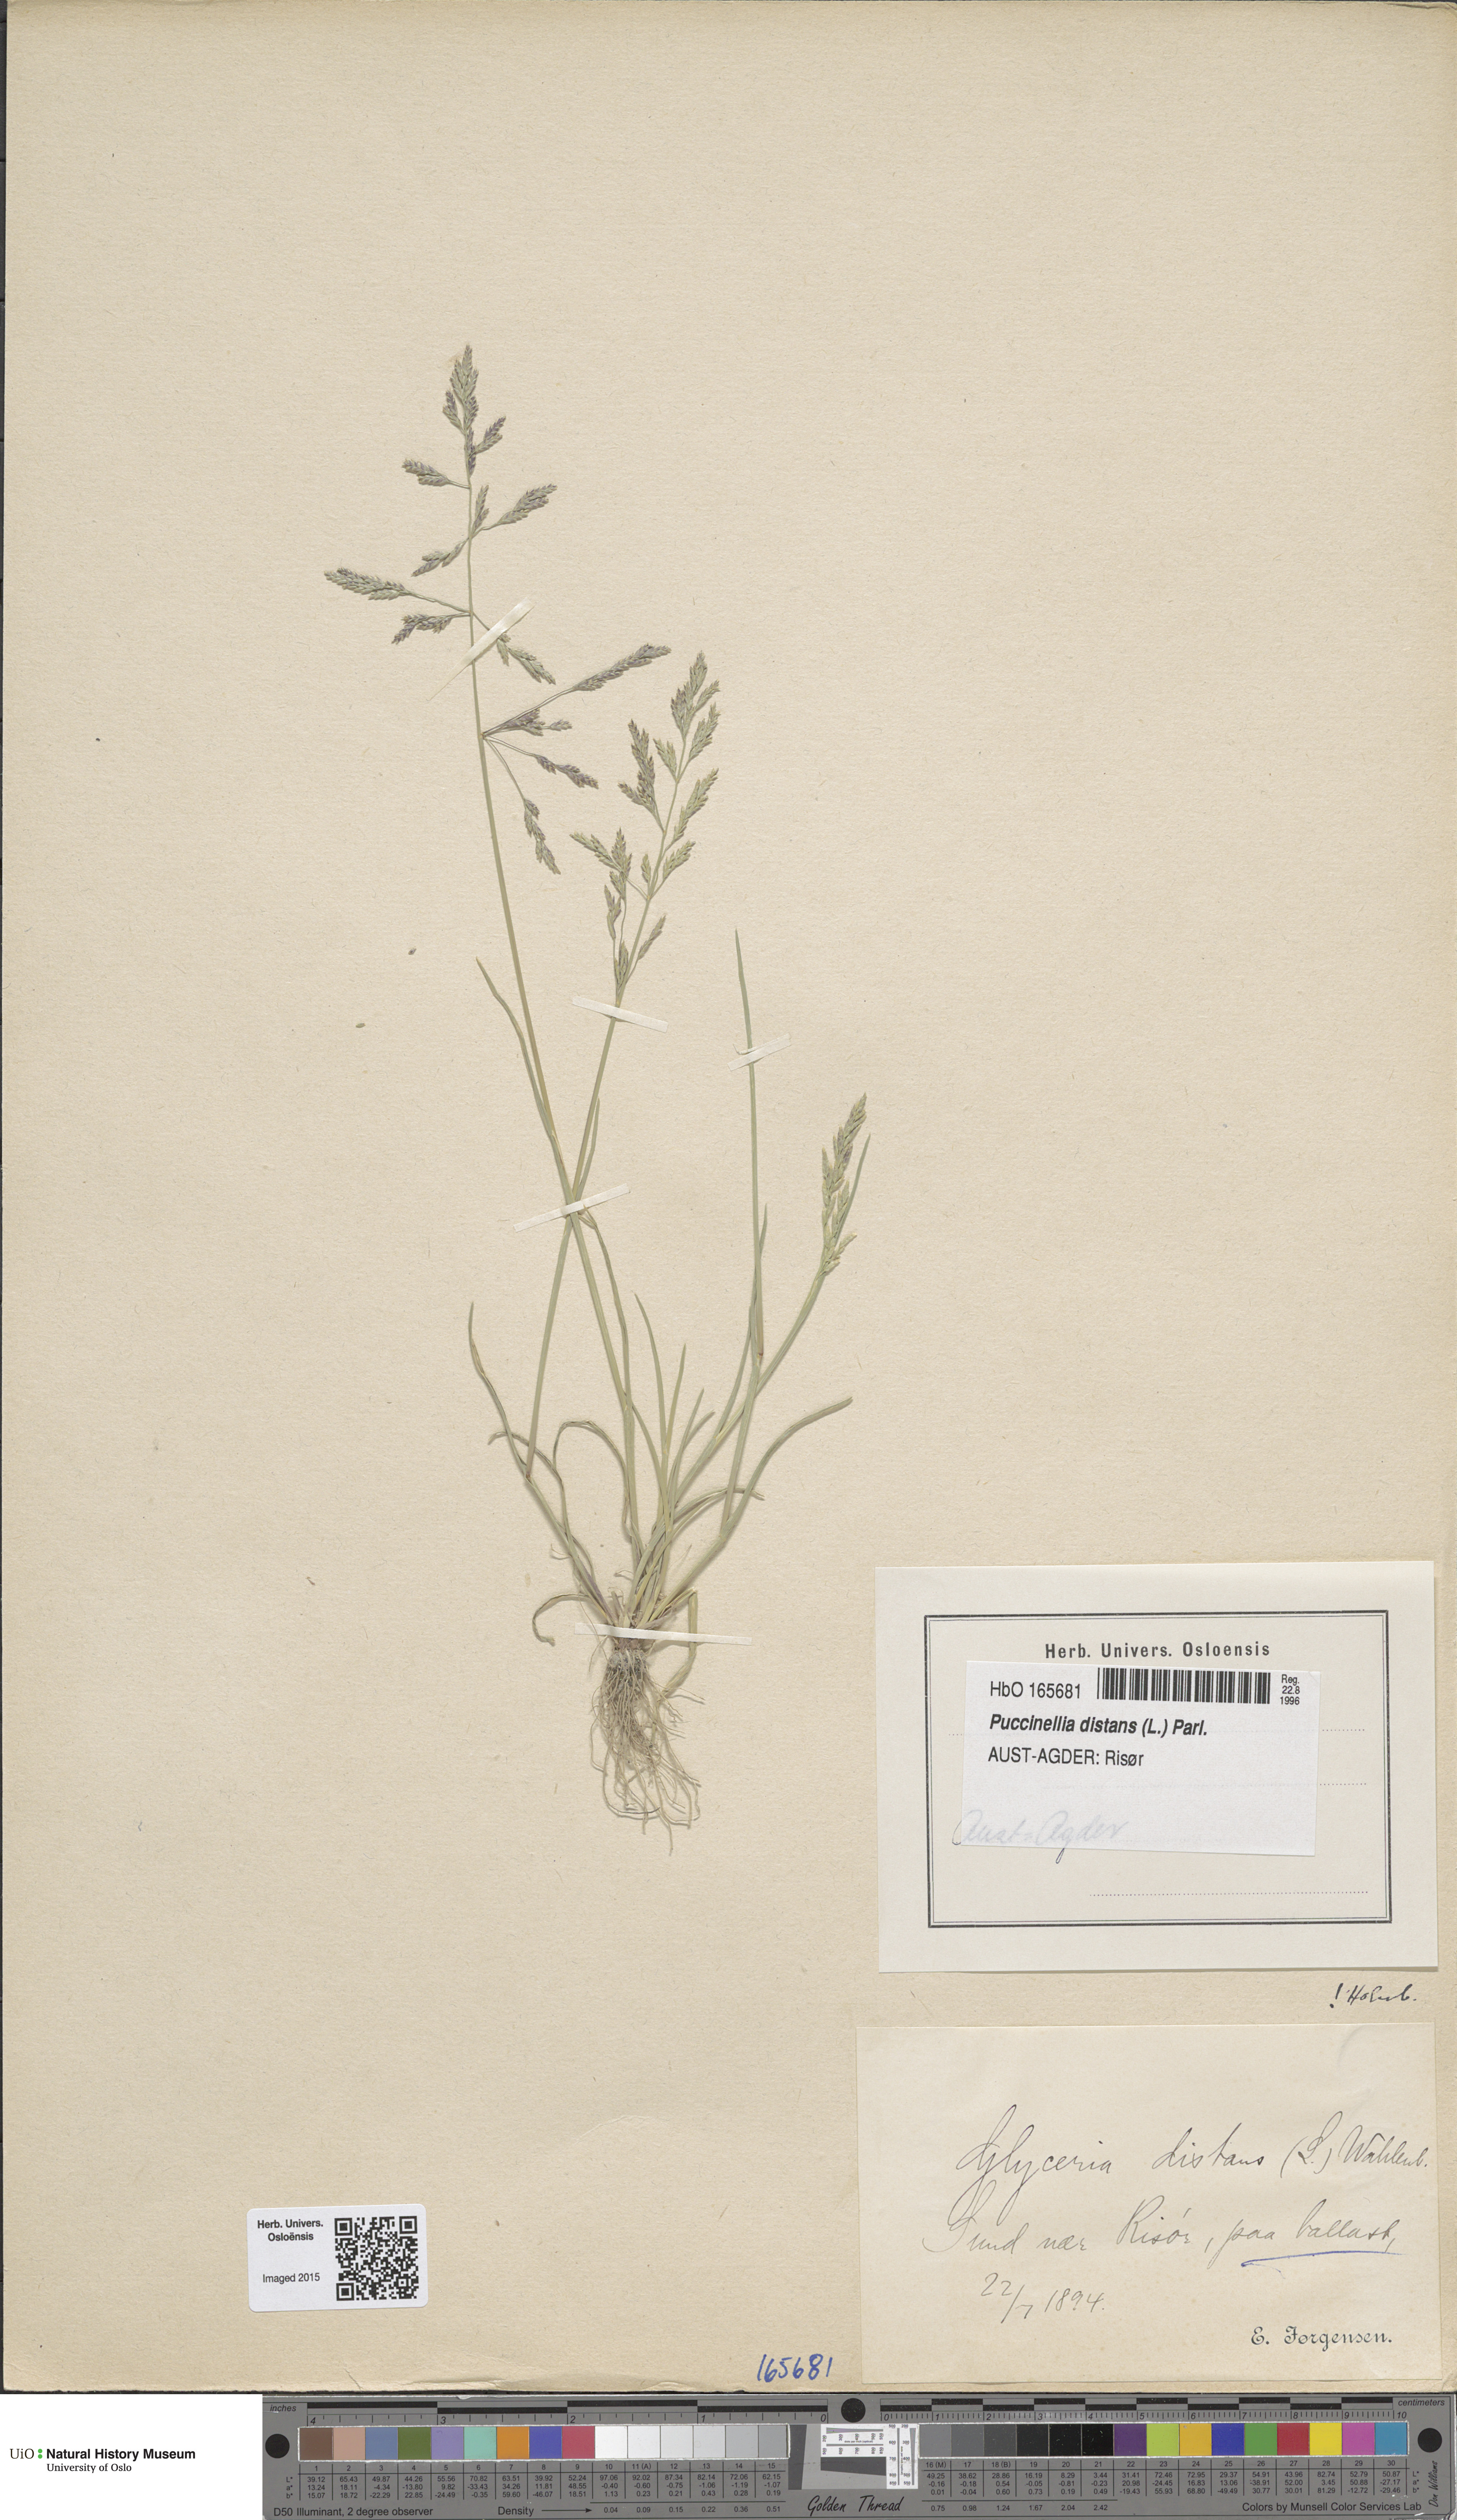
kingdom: Plantae
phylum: Tracheophyta
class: Liliopsida
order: Poales
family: Poaceae
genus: Puccinellia
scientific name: Puccinellia distans
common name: Weeping alkaligrass
